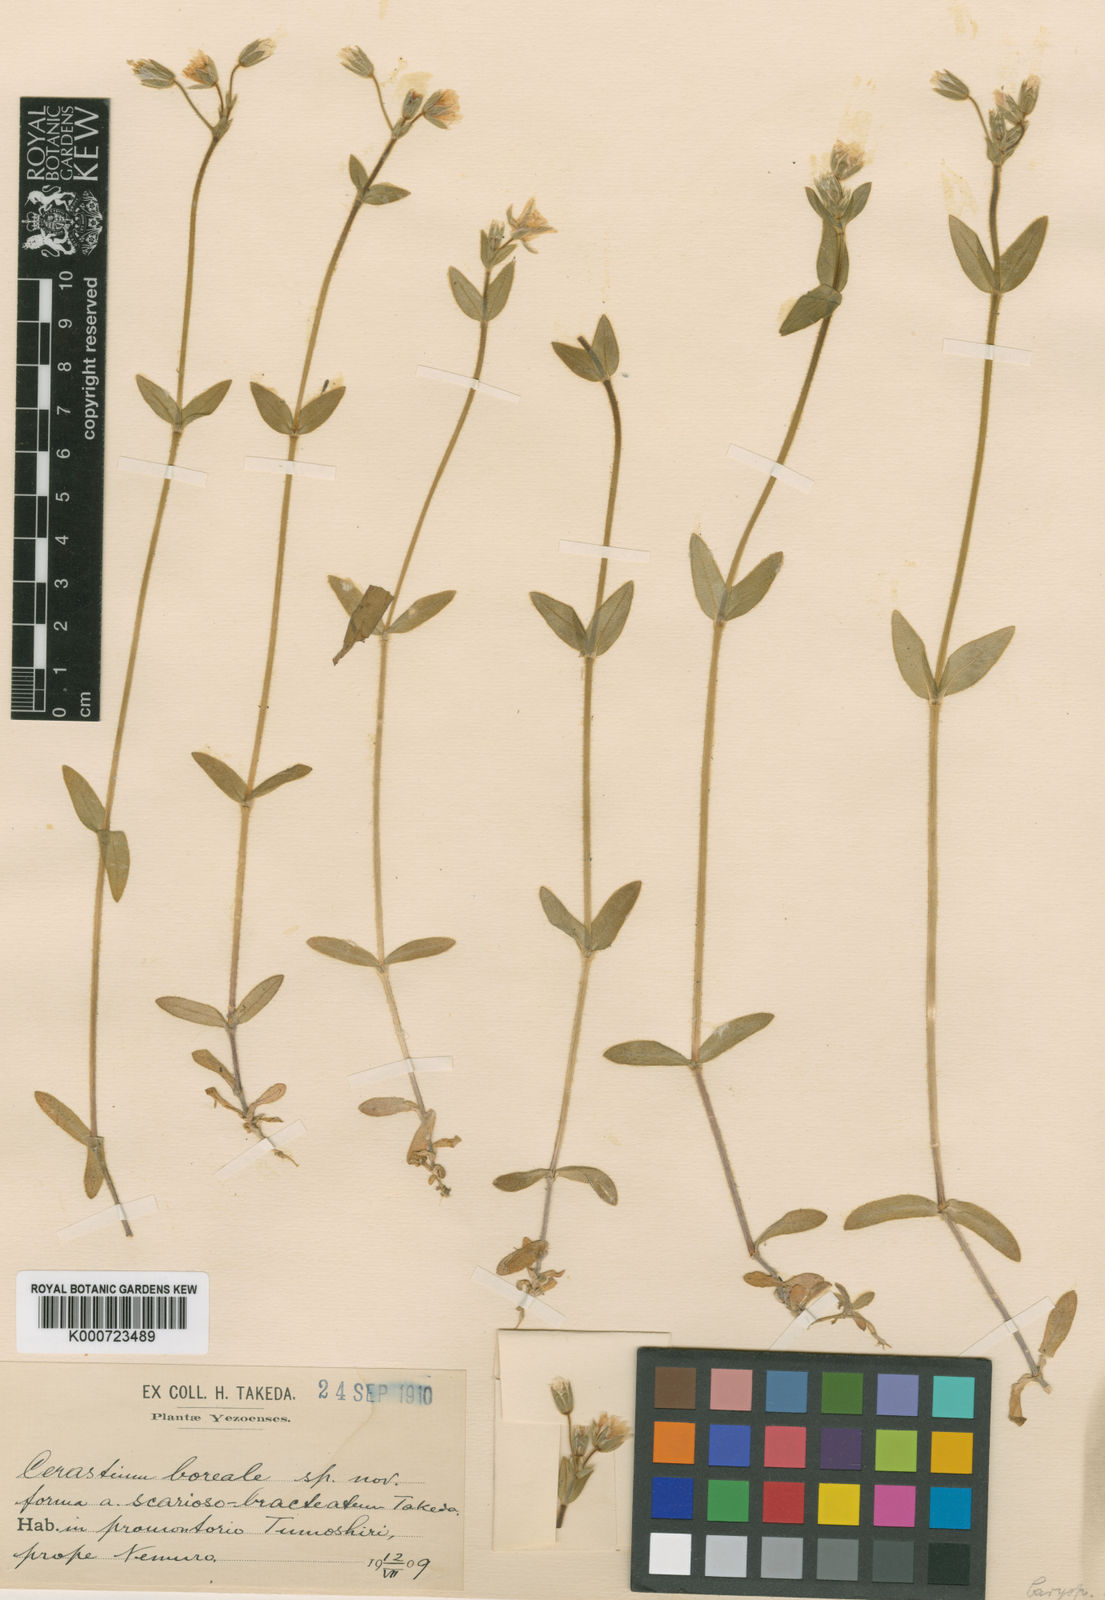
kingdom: Plantae
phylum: Tracheophyta
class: Magnoliopsida
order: Caryophyllales
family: Caryophyllaceae
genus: Cerastium
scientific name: Cerastium fischerianum
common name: Fischer's chickweed
